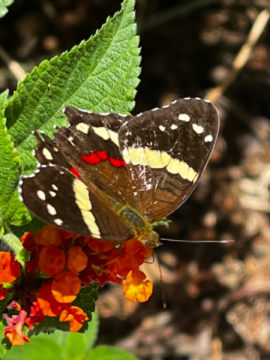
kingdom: Animalia
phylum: Arthropoda
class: Insecta
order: Lepidoptera
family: Nymphalidae
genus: Anartia
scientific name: Anartia fatima
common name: Banded Peacock
